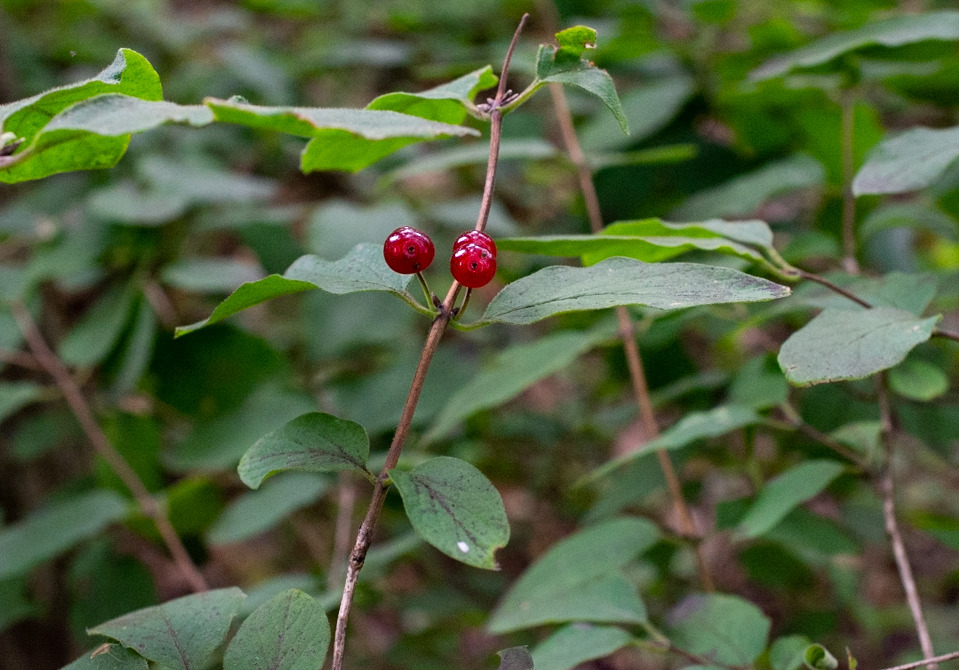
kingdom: Plantae
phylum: Tracheophyta
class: Magnoliopsida
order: Dipsacales
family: Caprifoliaceae
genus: Lonicera
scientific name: Lonicera xylosteum
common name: Dunet gedeblad
